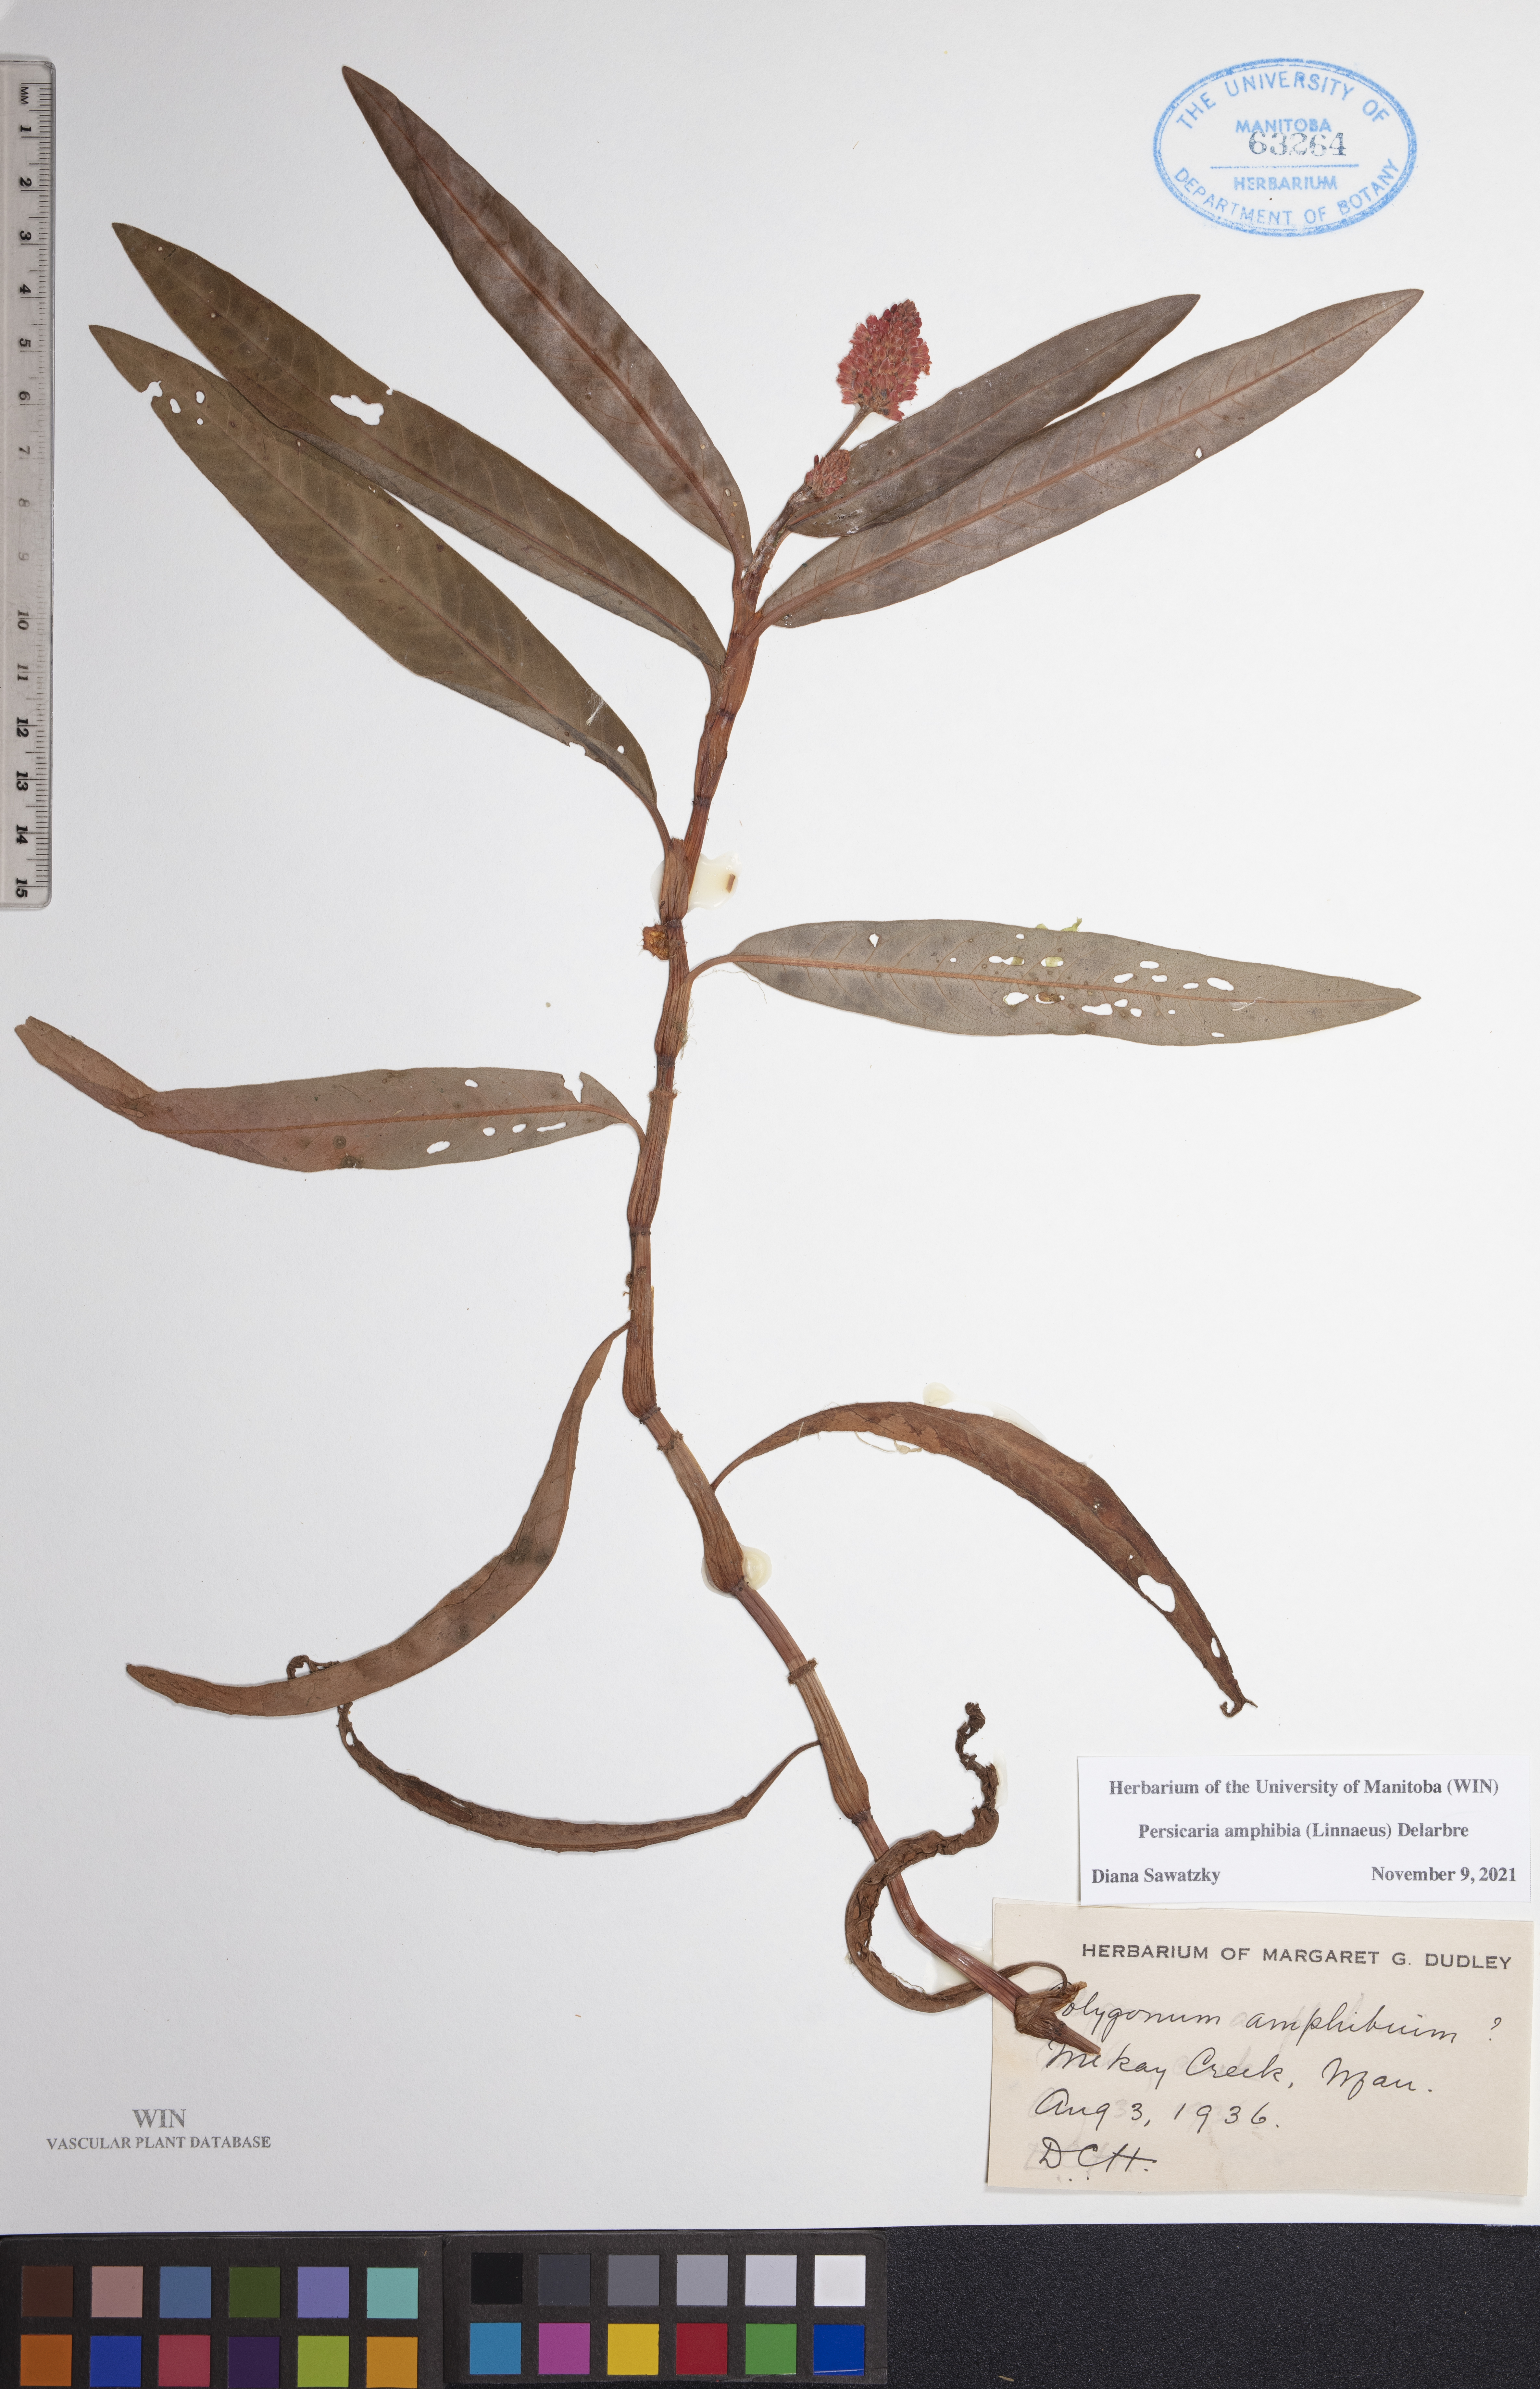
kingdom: Plantae
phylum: Tracheophyta
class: Magnoliopsida
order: Caryophyllales
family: Polygonaceae
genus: Persicaria
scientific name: Persicaria amphibia
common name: Amphibious bistort
